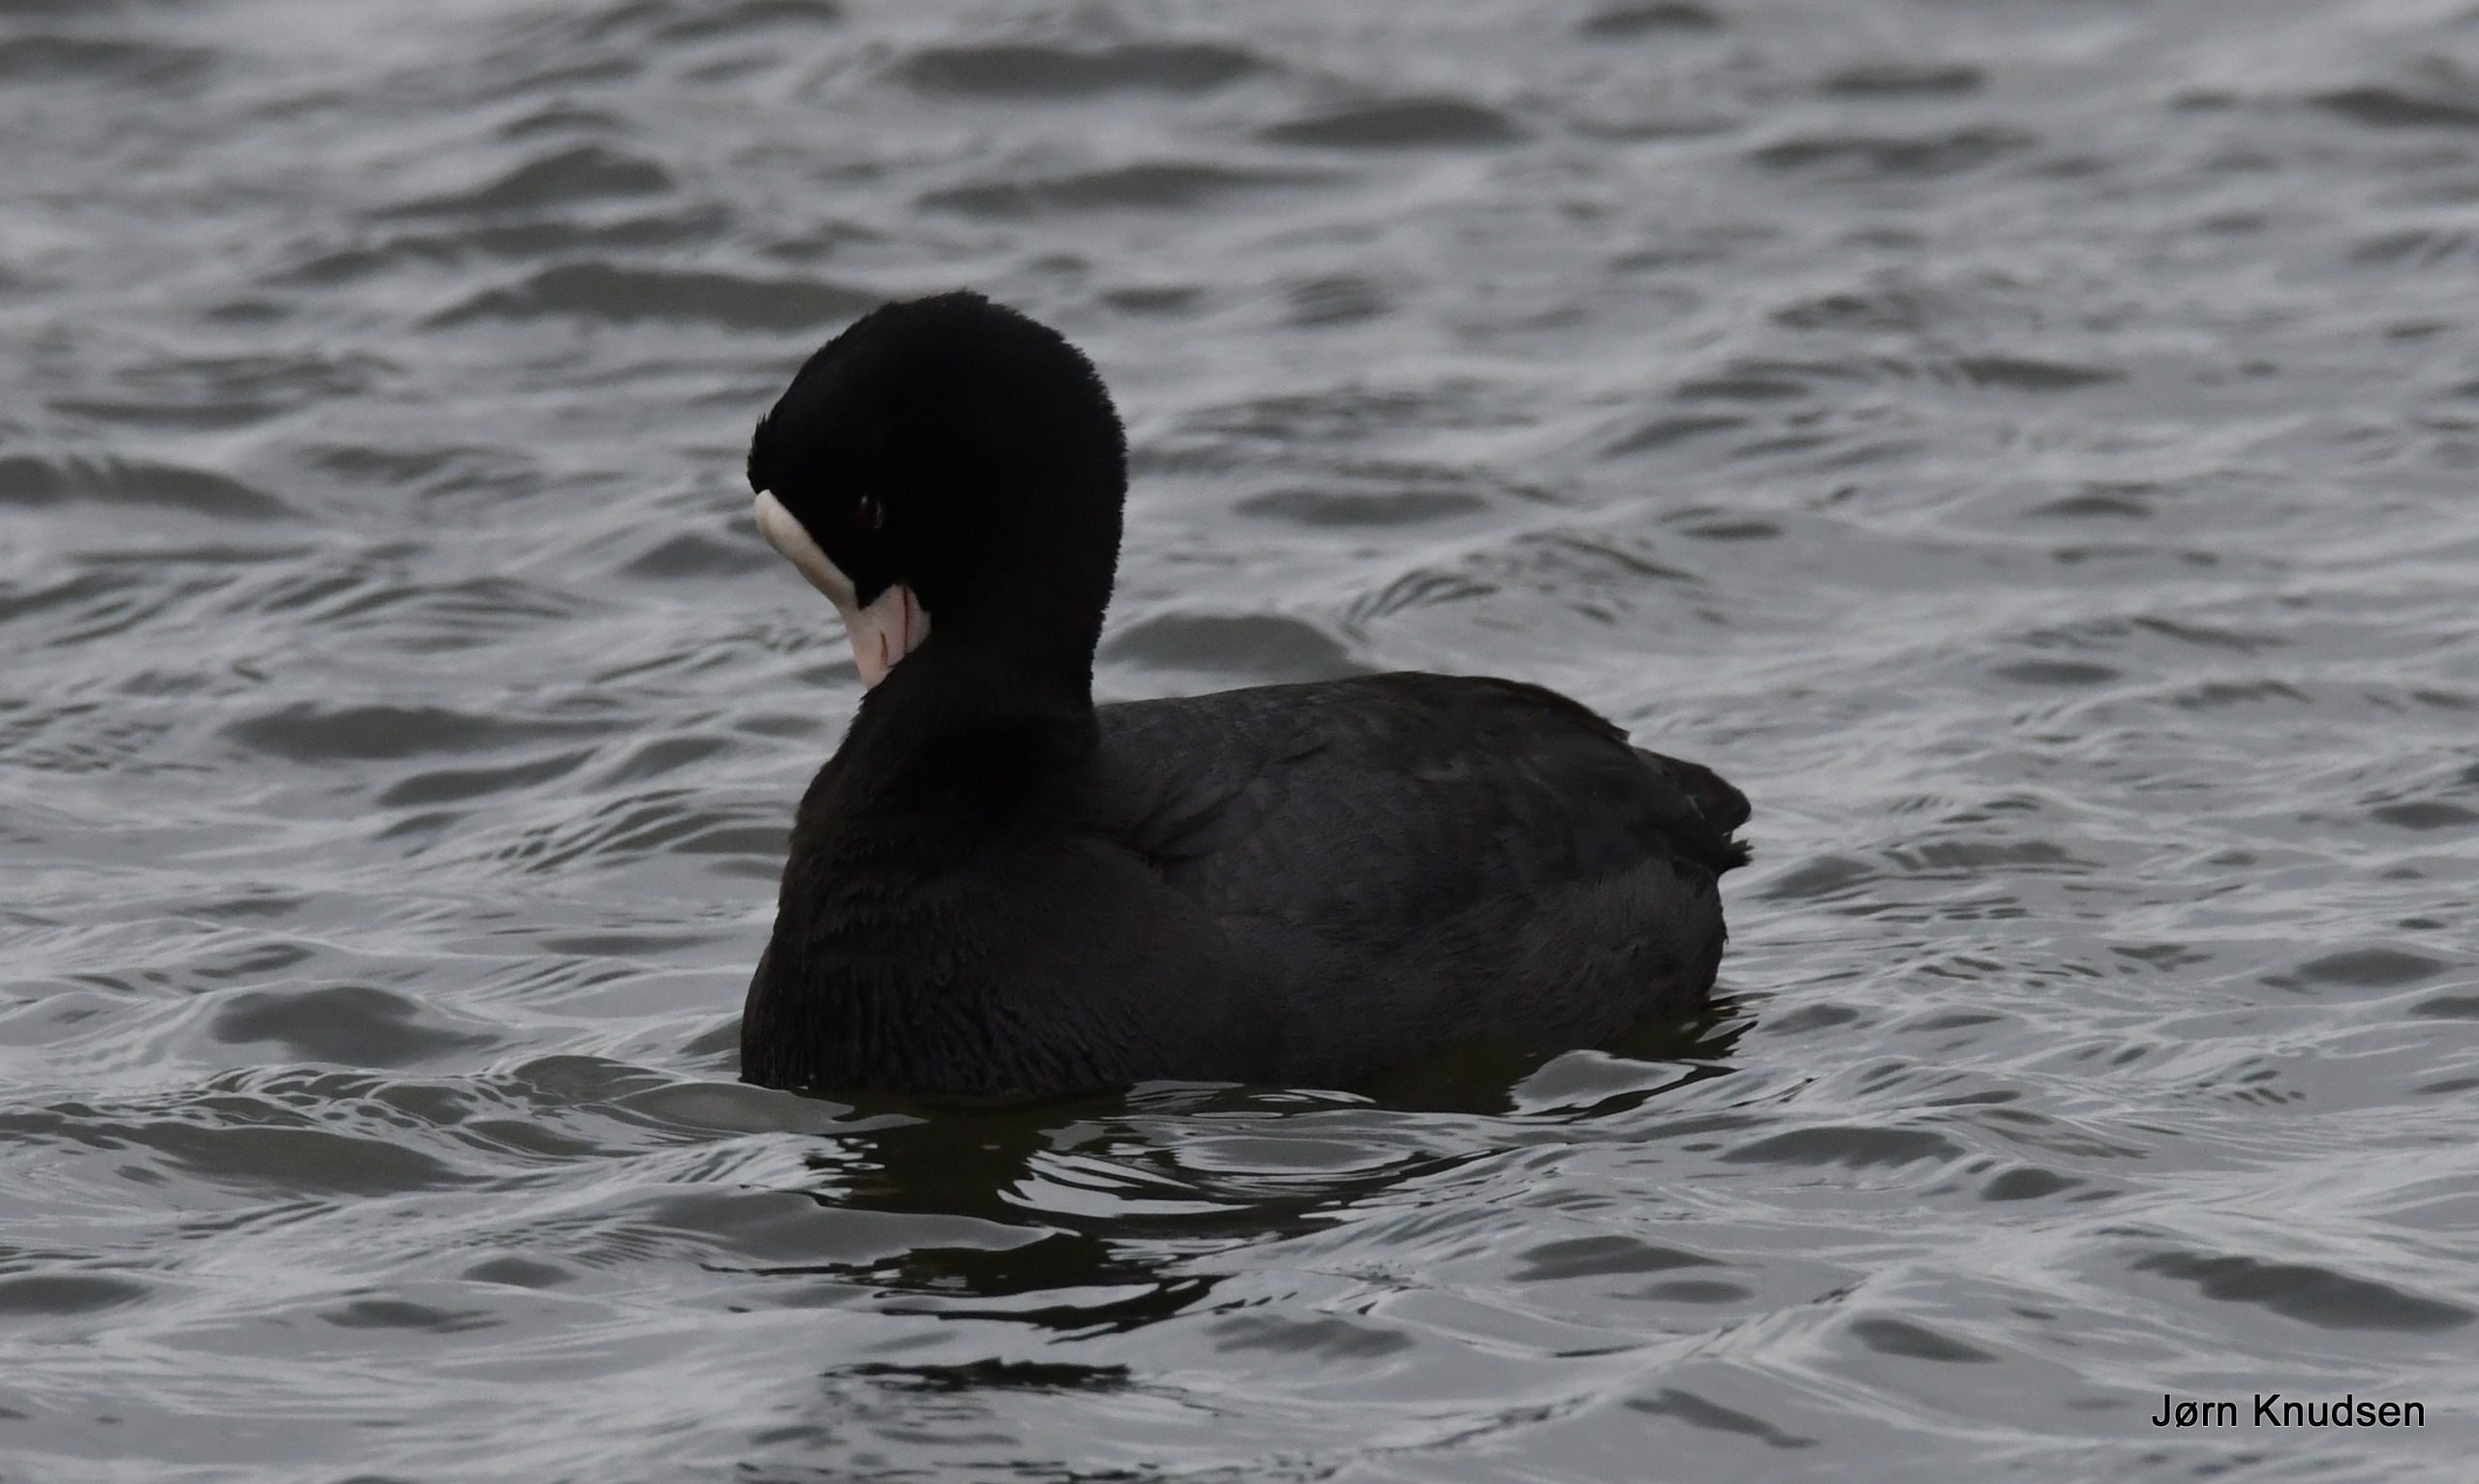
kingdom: Animalia
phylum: Chordata
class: Aves
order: Gruiformes
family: Rallidae
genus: Fulica
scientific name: Fulica atra
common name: Blishøne
